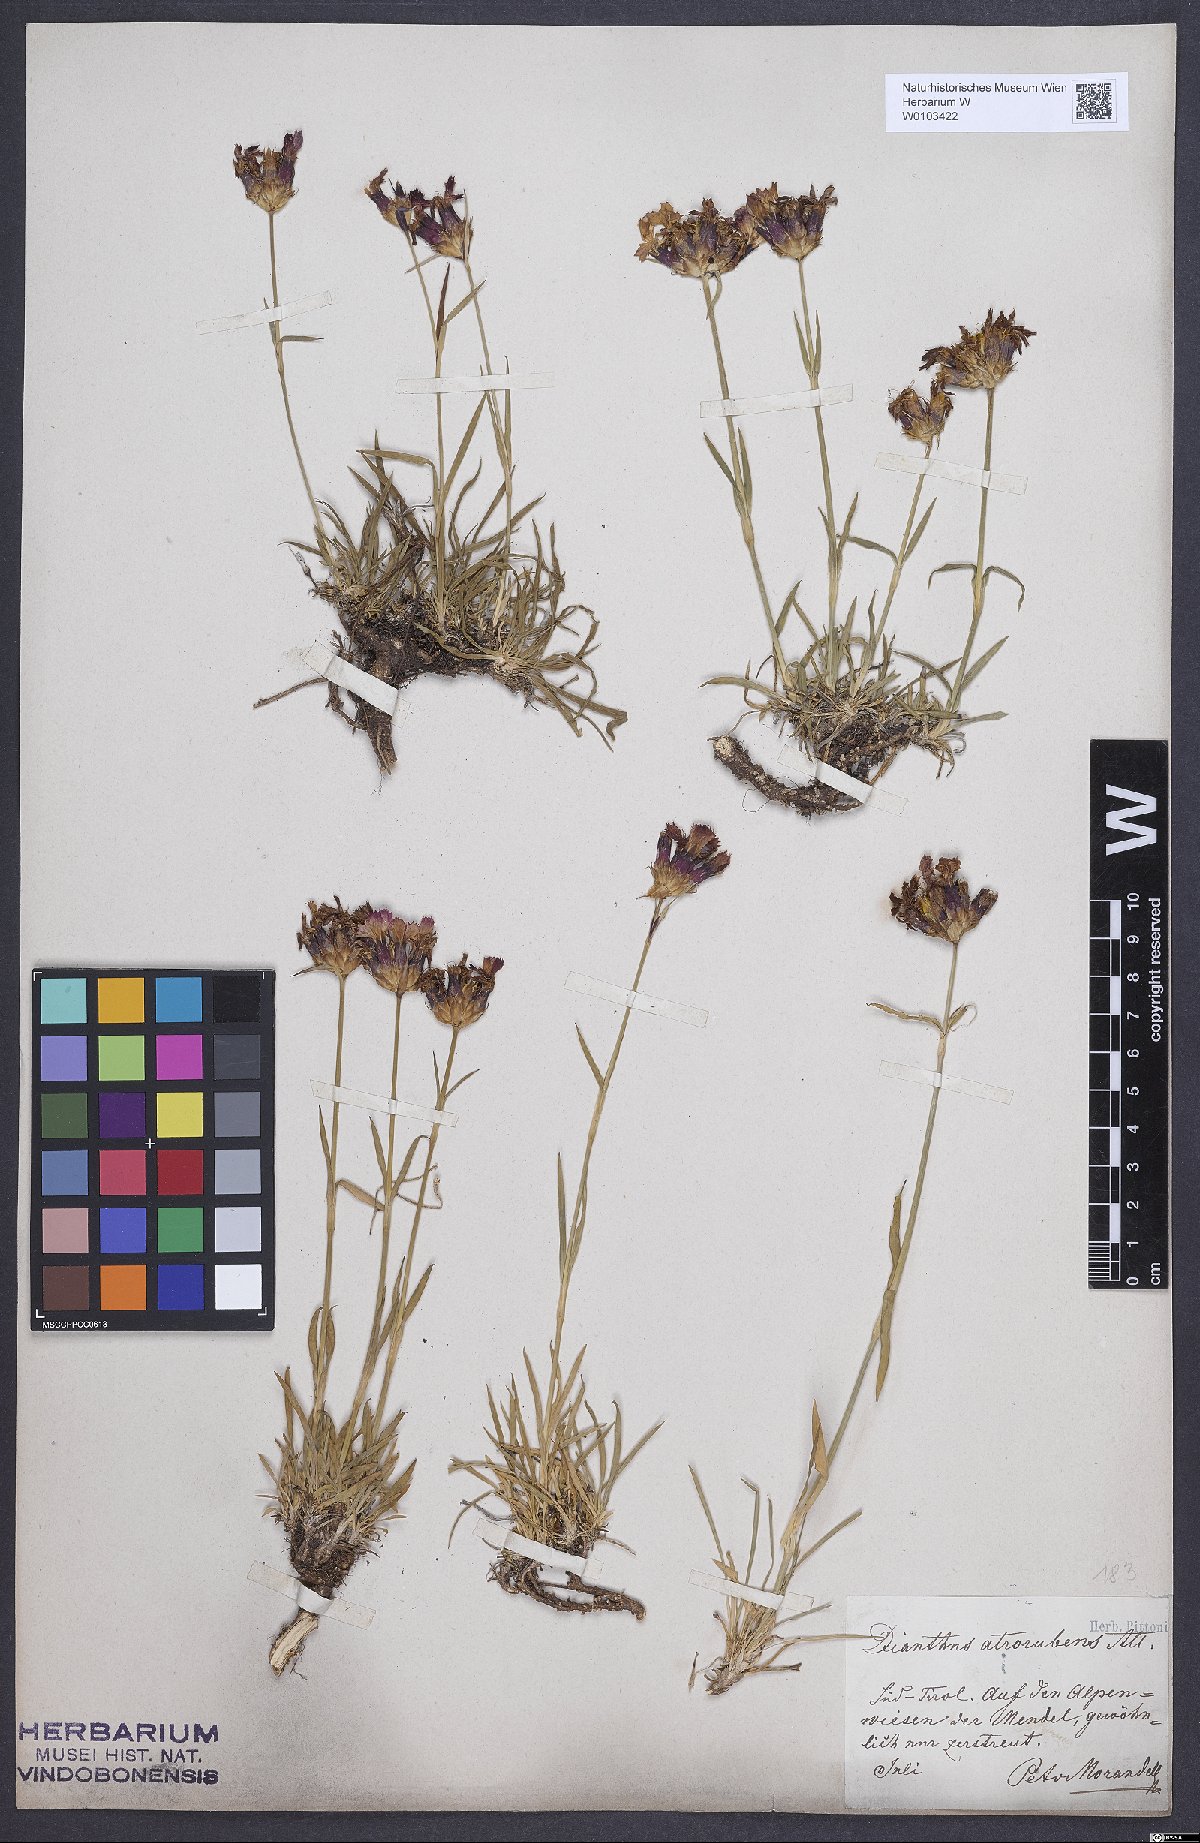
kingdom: Plantae
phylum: Tracheophyta
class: Magnoliopsida
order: Caryophyllales
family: Caryophyllaceae
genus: Dianthus
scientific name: Dianthus carthusianorum
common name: Carthusian pink
